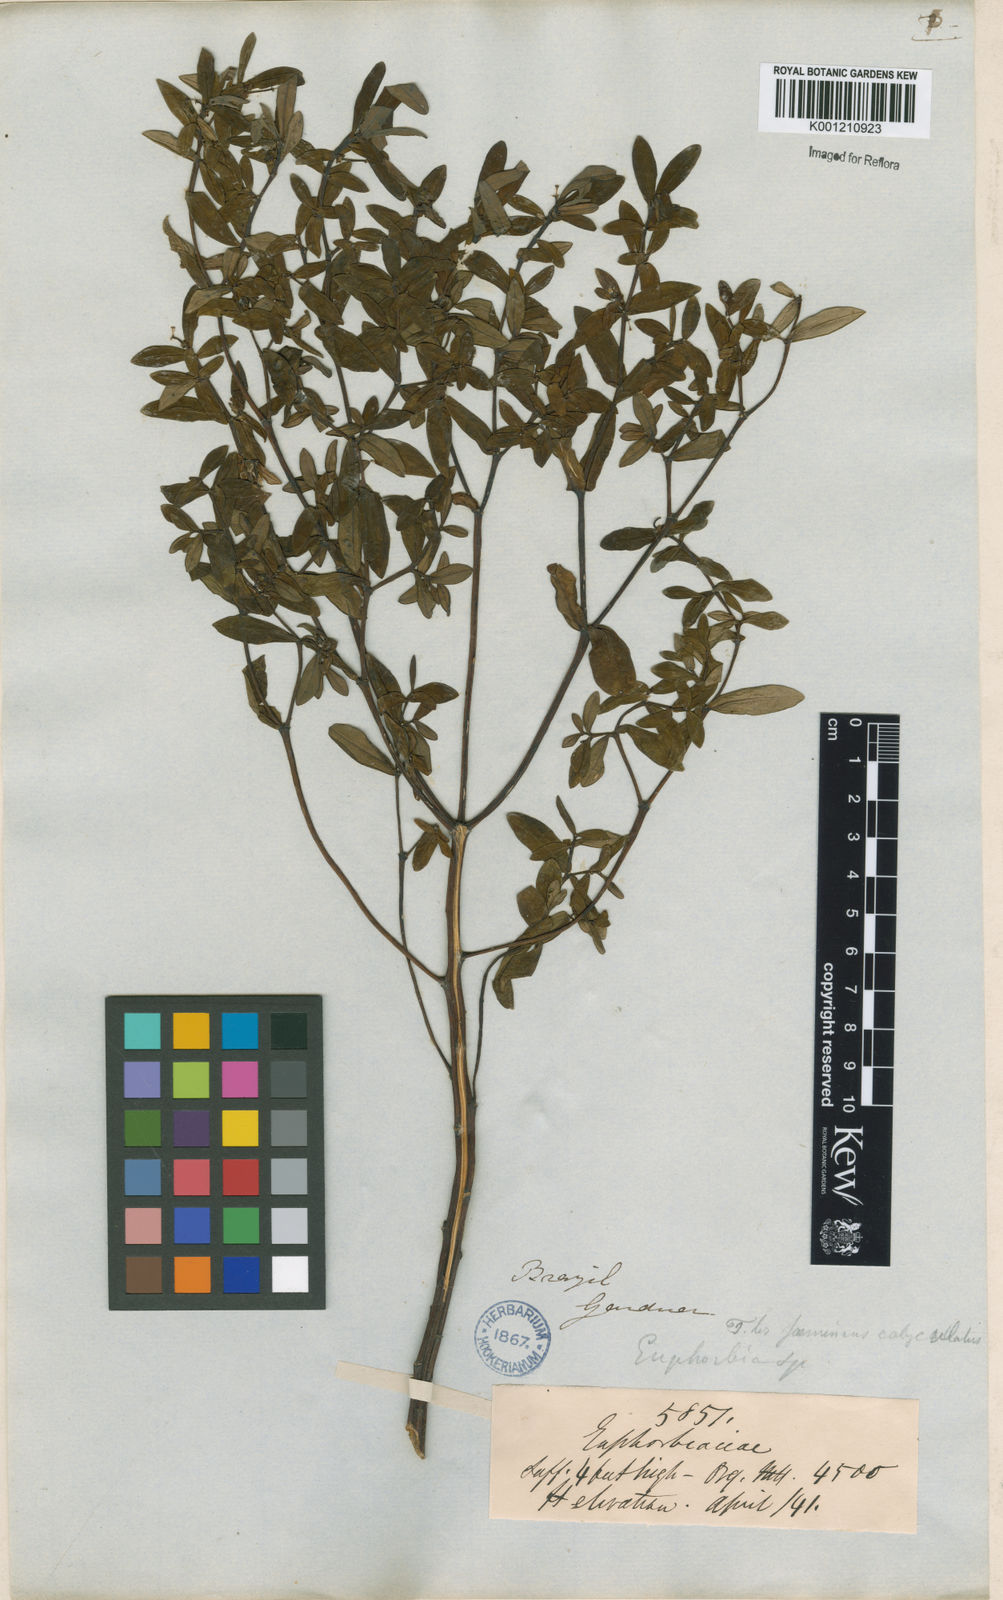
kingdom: Plantae
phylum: Tracheophyta
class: Magnoliopsida
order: Malpighiales
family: Euphorbiaceae
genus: Euphorbia
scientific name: Euphorbia elodes
